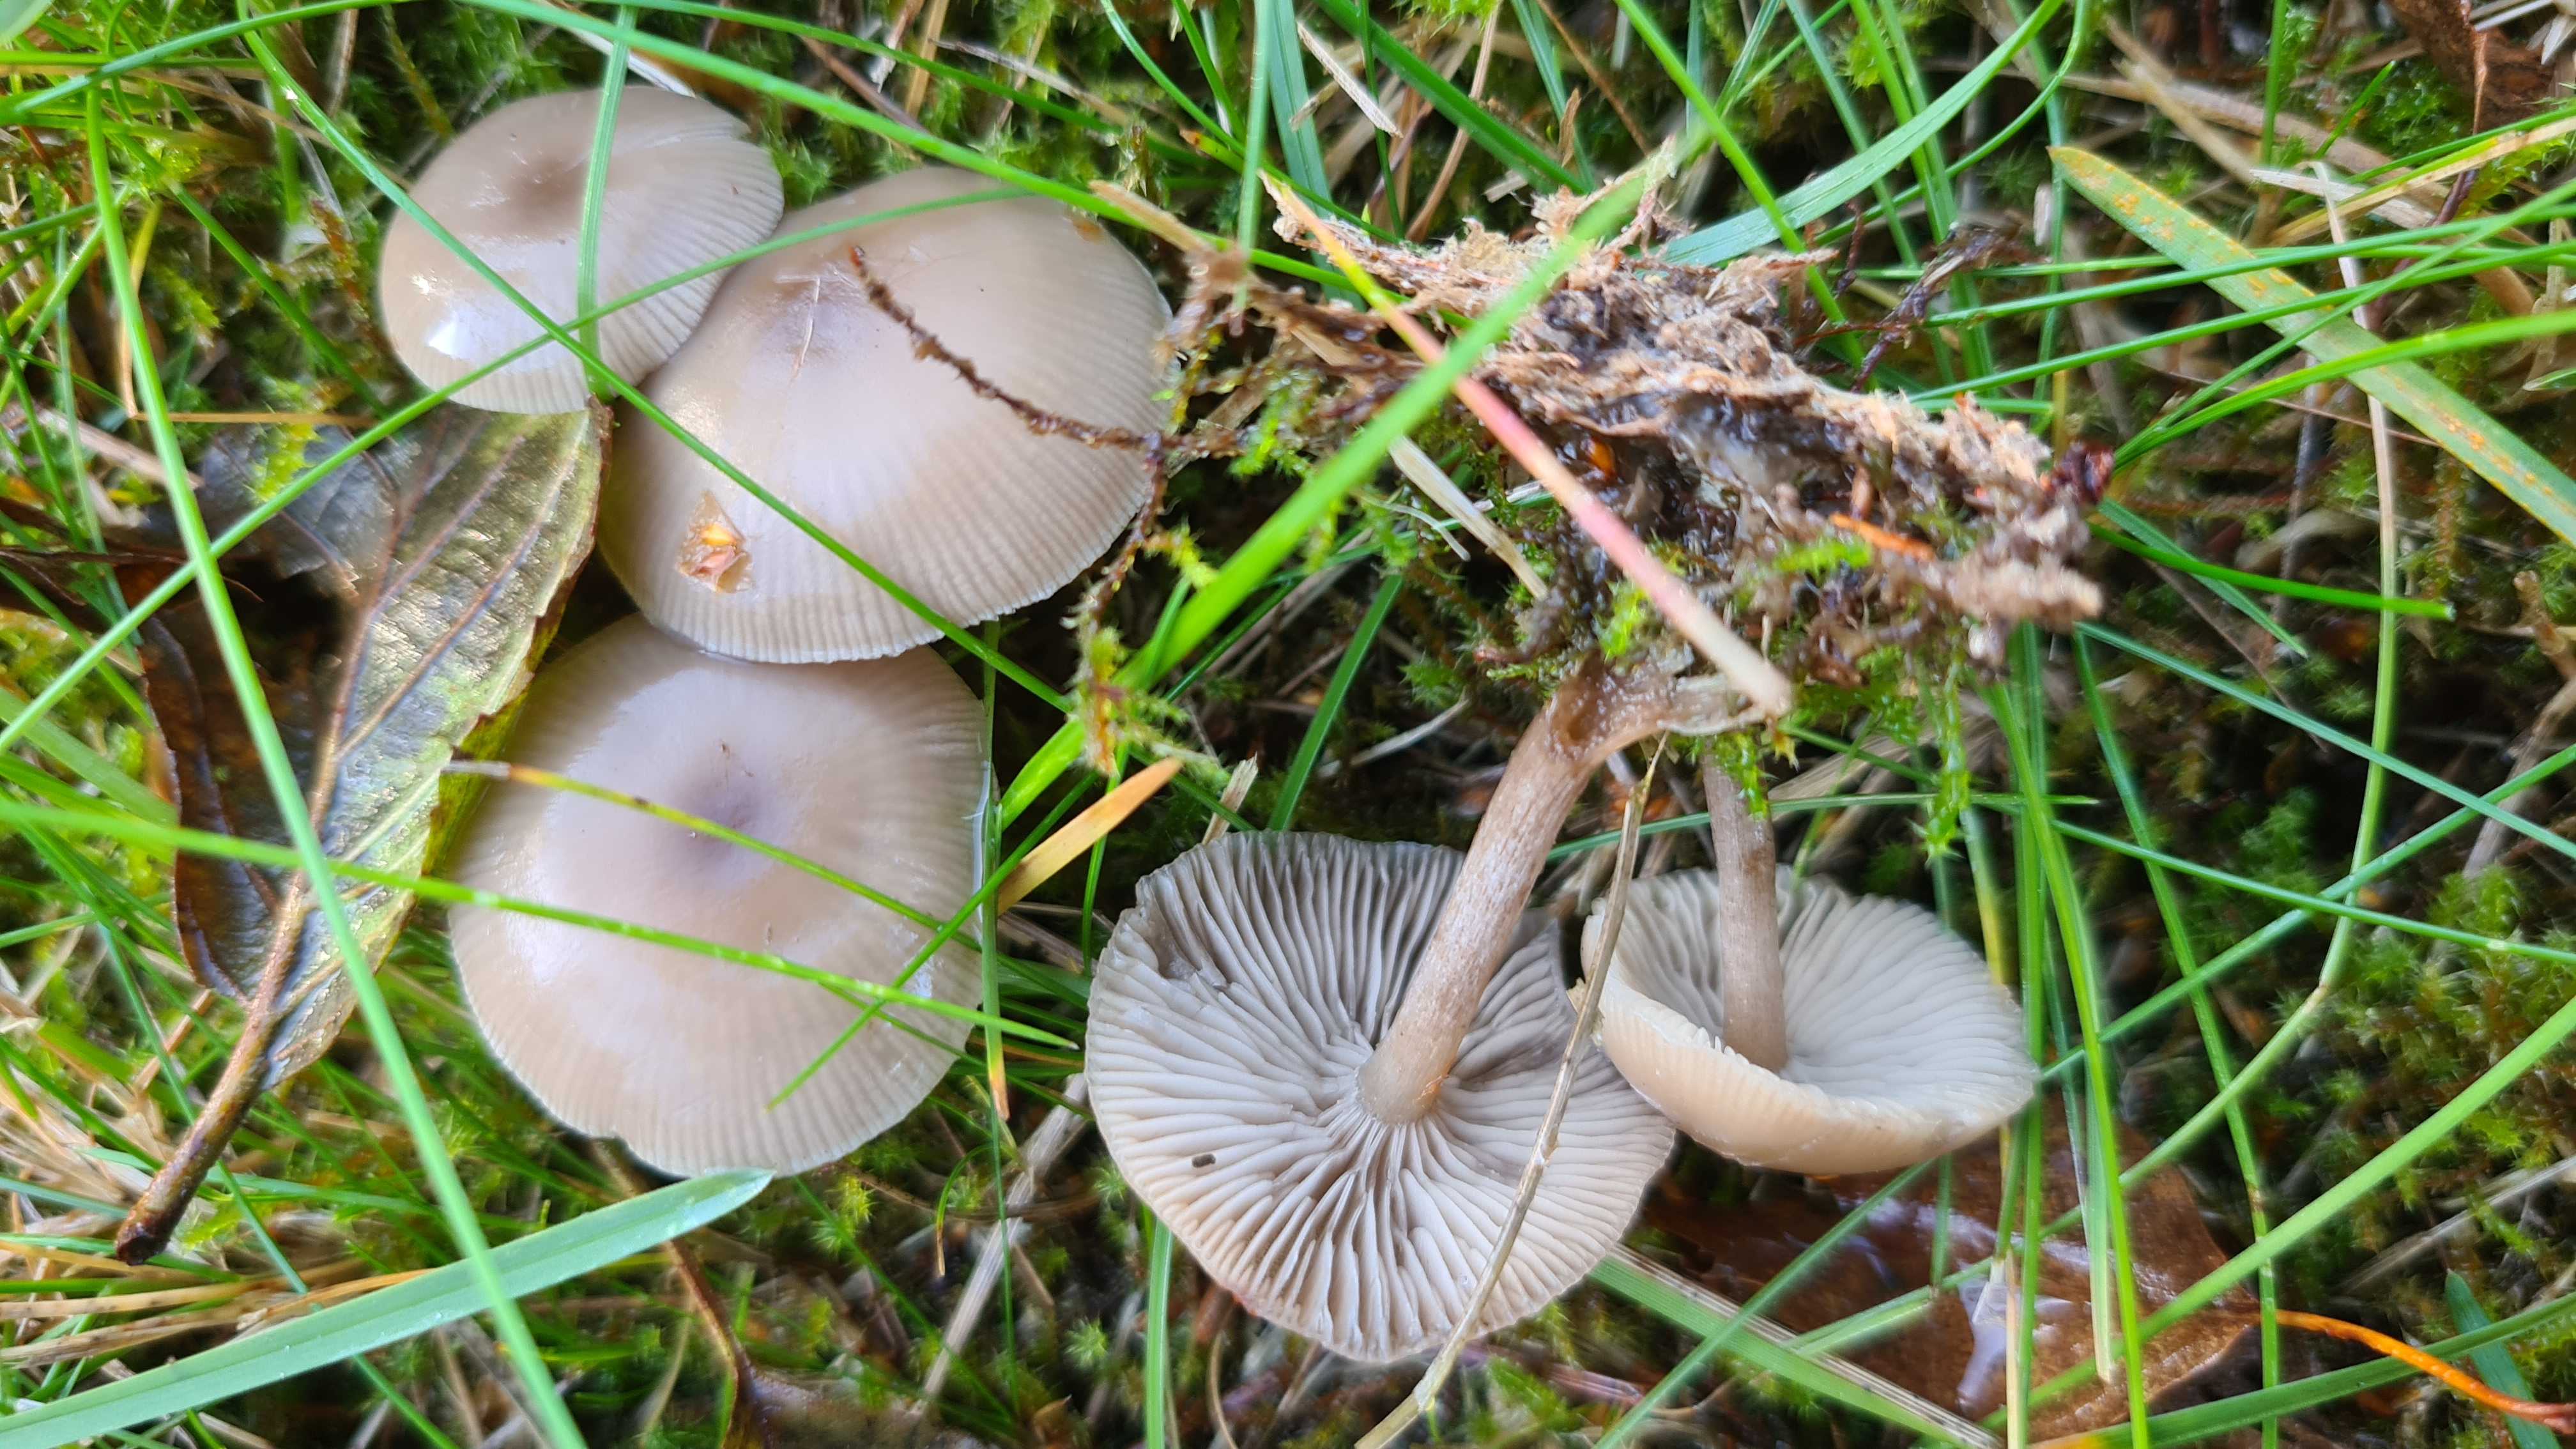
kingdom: Fungi
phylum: Basidiomycota
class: Agaricomycetes
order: Agaricales
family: Tricholomataceae
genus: Clitocybe
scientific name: Clitocybe vibecina
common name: randstribet tragthat
